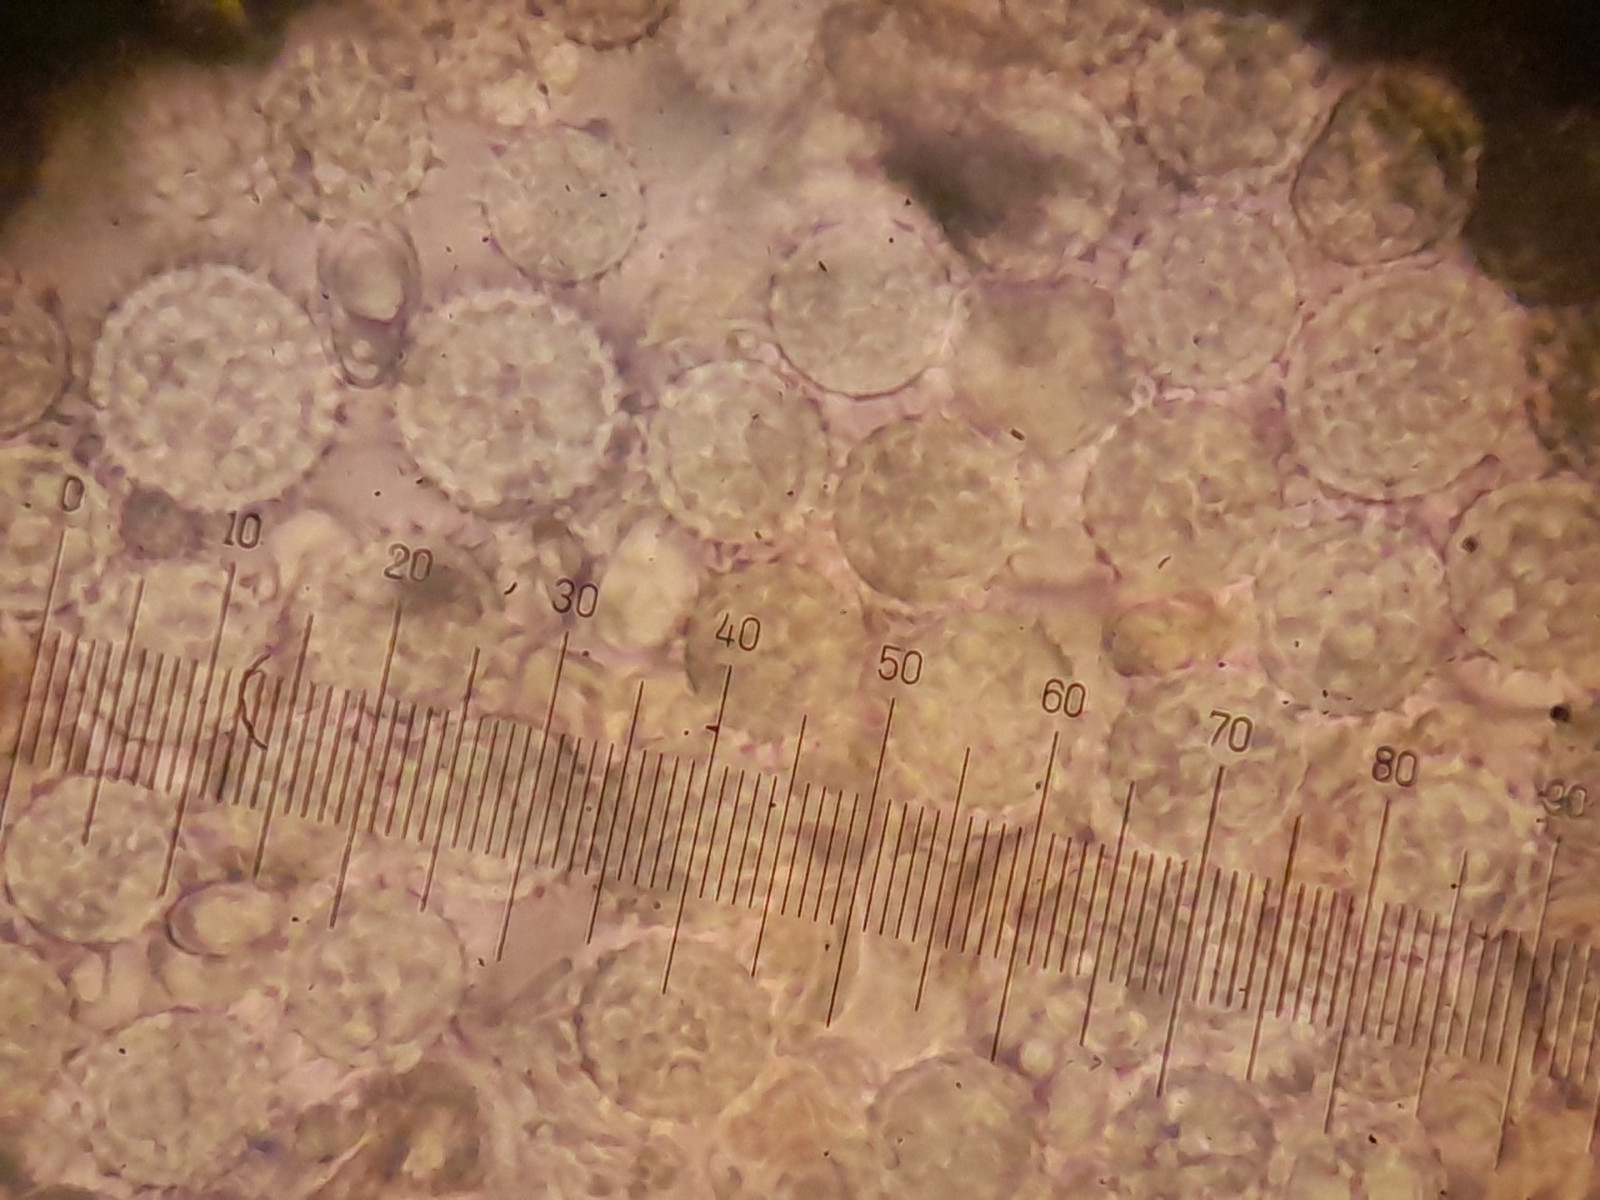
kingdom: Fungi
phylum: Basidiomycota
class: Agaricomycetes
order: Agaricales
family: Hydnangiaceae
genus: Laccaria
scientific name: Laccaria tortilis
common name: krybende ametysthat
